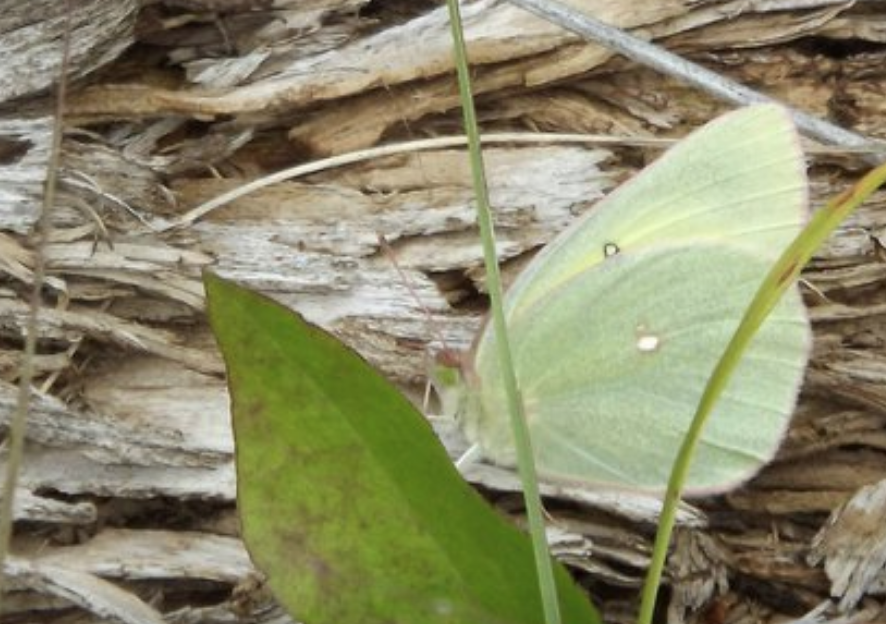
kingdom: Animalia
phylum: Arthropoda
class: Insecta
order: Lepidoptera
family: Pieridae
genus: Colias
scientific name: Colias alexandra
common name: Queen Alexandra's Sulphur
